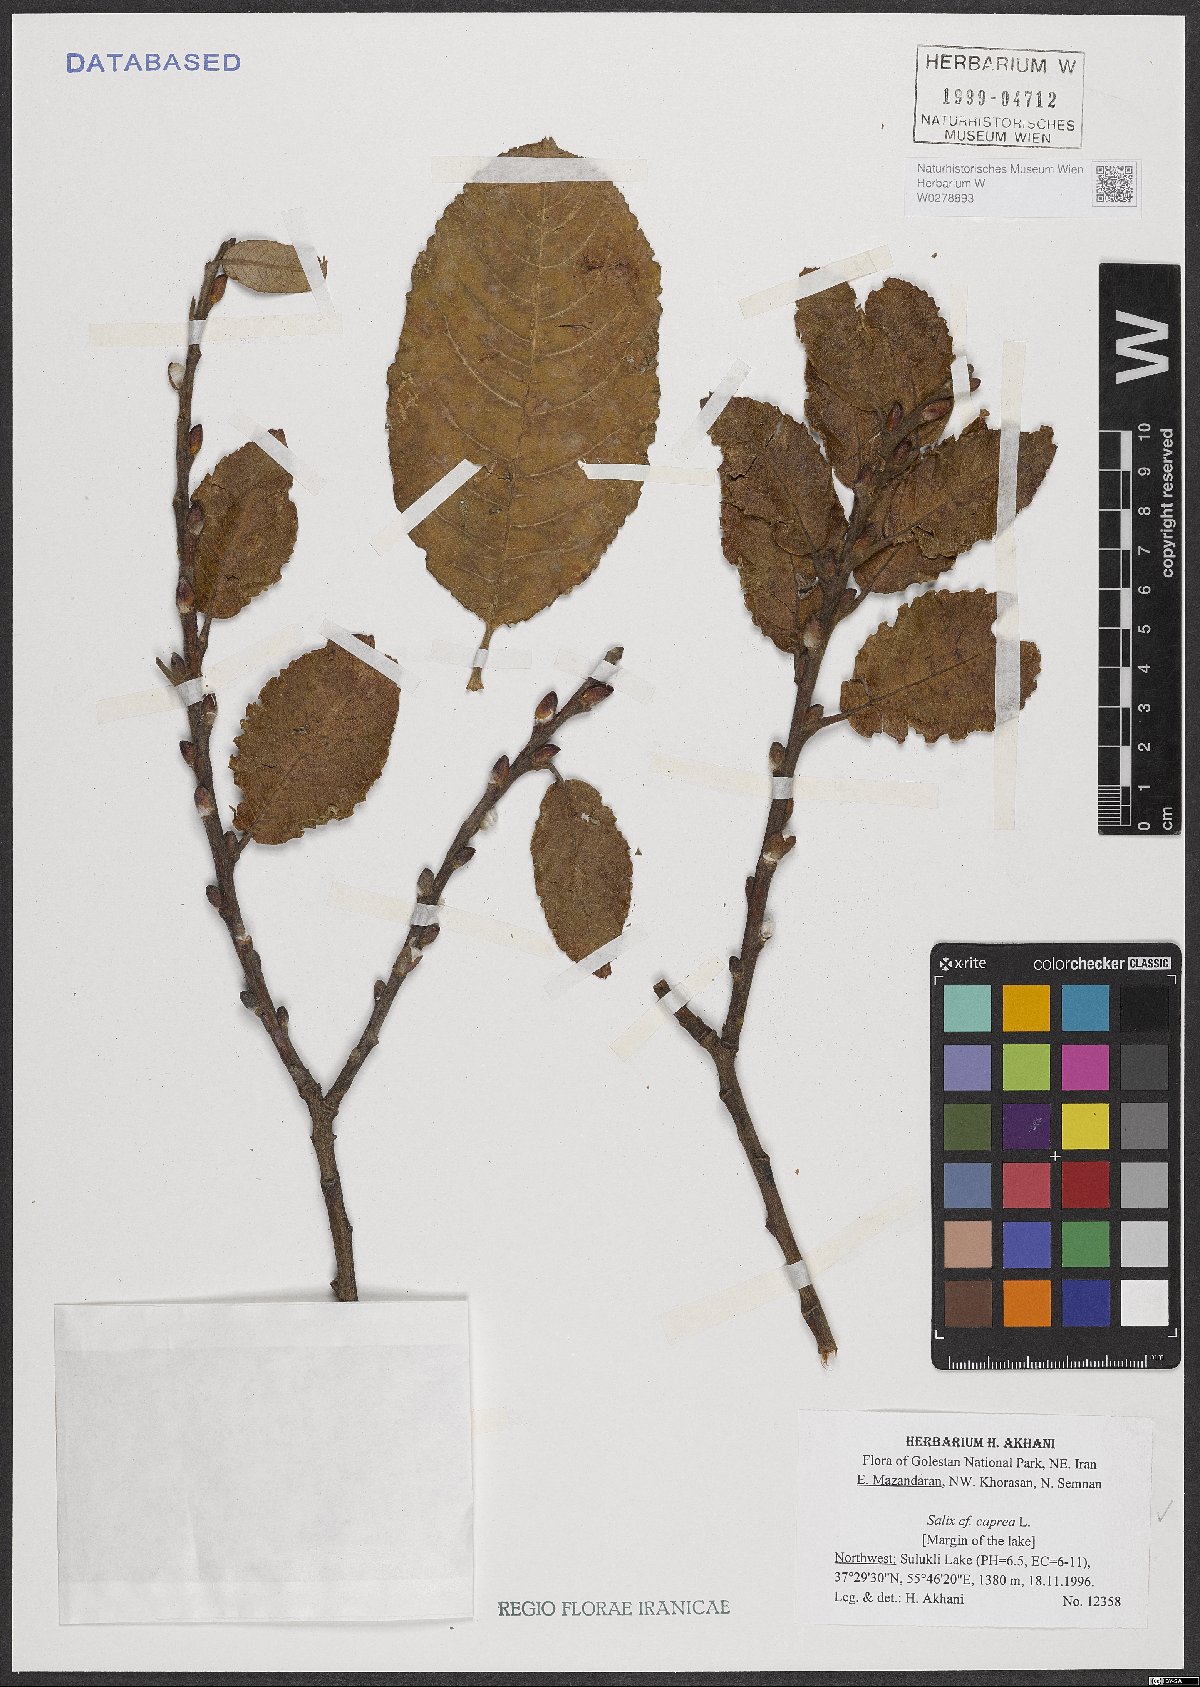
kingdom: Plantae
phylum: Tracheophyta
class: Magnoliopsida
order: Malpighiales
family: Salicaceae
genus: Salix
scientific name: Salix caprea
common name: Goat willow
